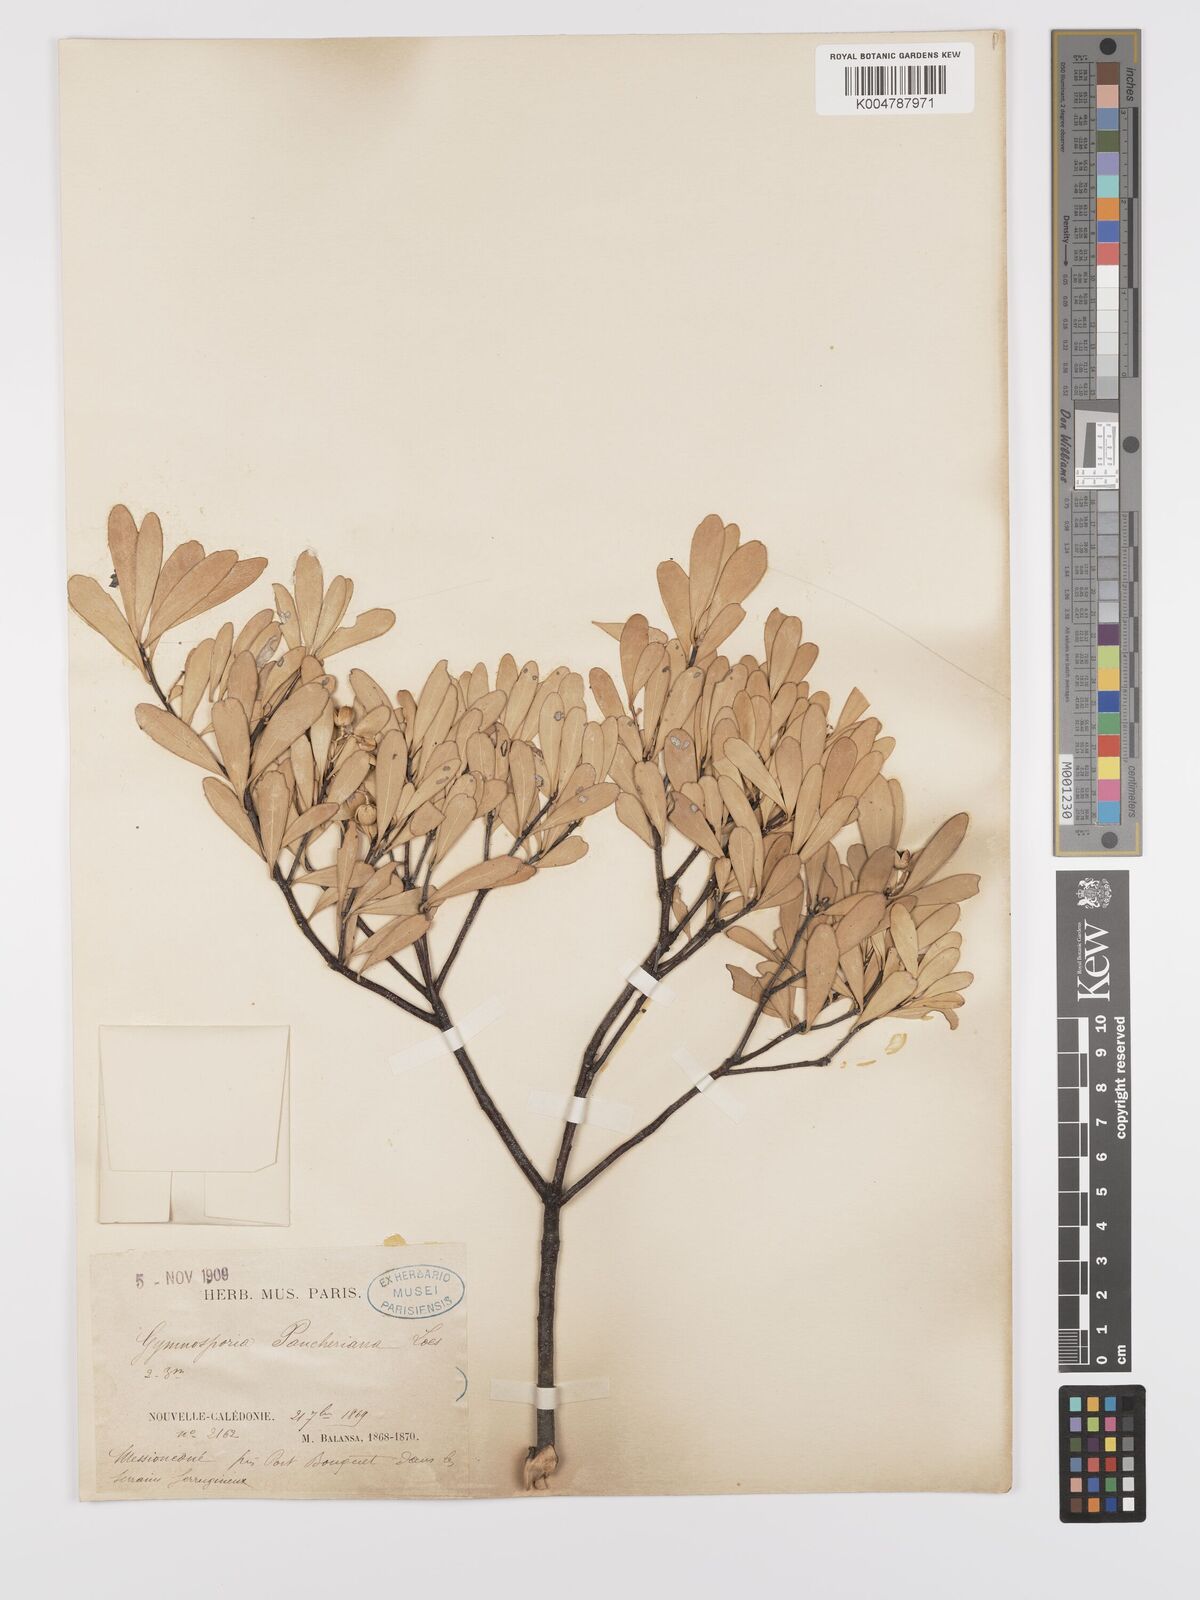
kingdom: Plantae
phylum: Tracheophyta
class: Magnoliopsida
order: Celastrales
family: Celastraceae
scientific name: Celastraceae
